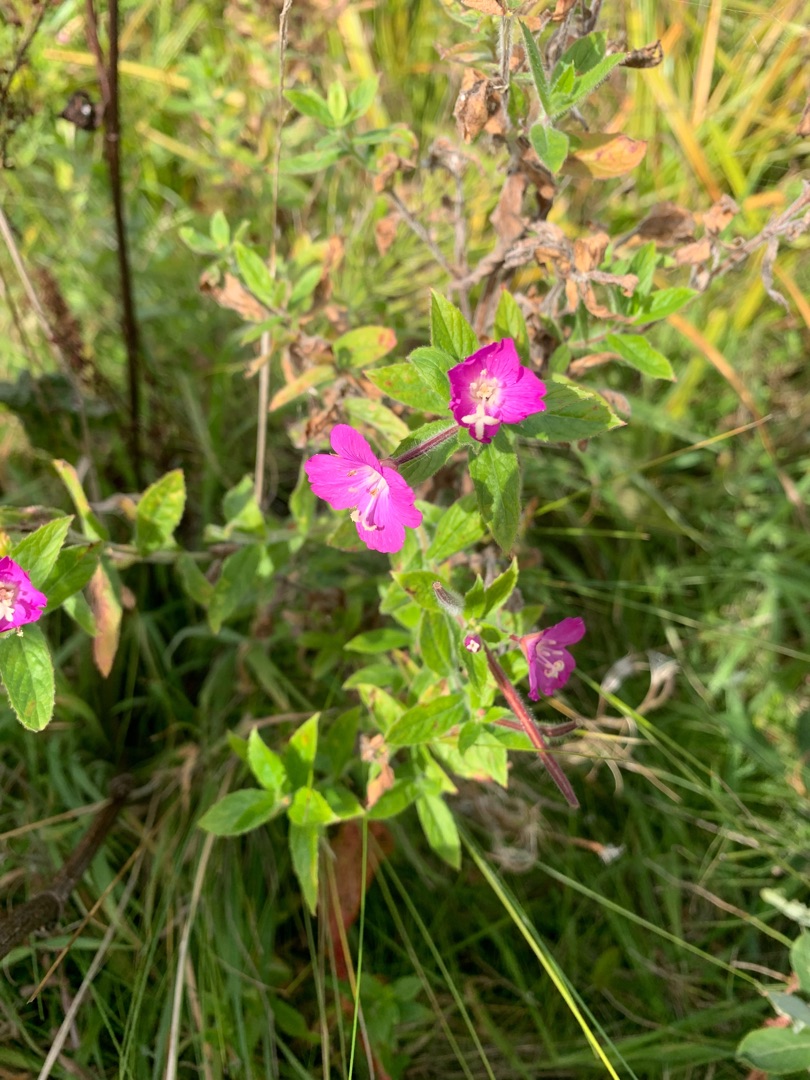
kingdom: Plantae
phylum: Tracheophyta
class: Magnoliopsida
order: Myrtales
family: Onagraceae
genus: Epilobium
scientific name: Epilobium hirsutum
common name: Lådden dueurt
